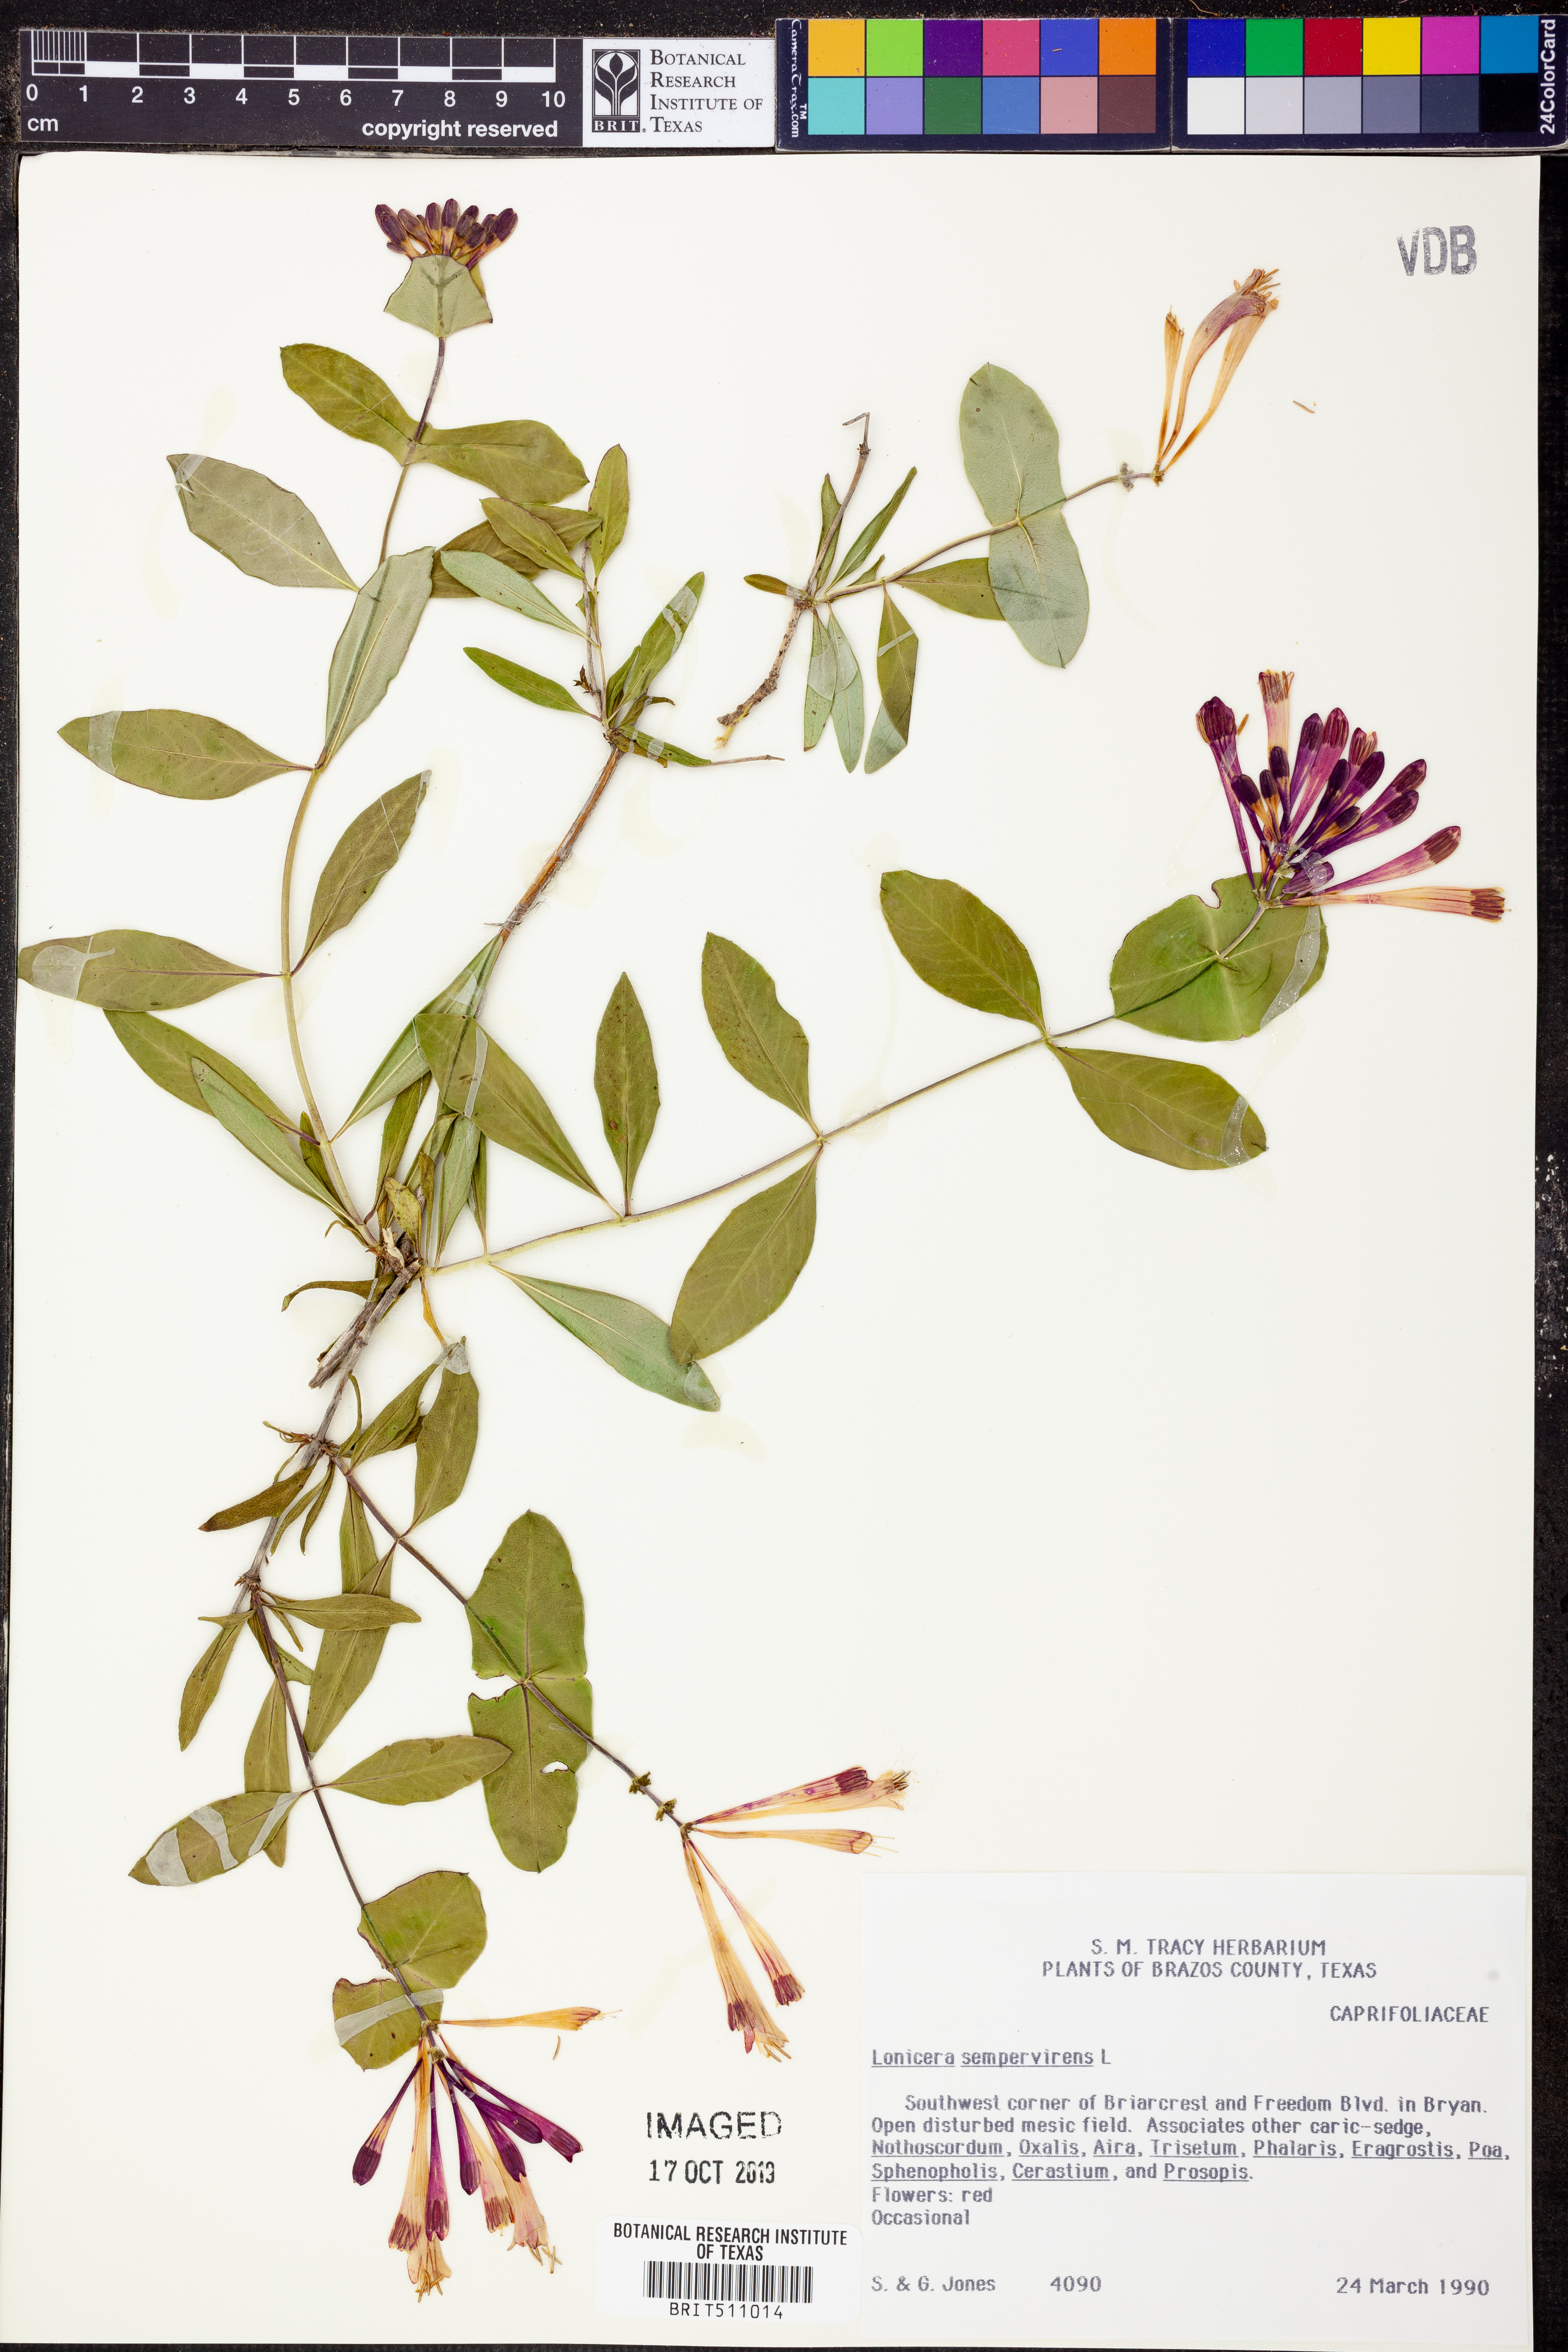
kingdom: Plantae
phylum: Tracheophyta
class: Magnoliopsida
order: Dipsacales
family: Caprifoliaceae
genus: Lonicera
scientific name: Lonicera sempervirens
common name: Coral honeysuckle
